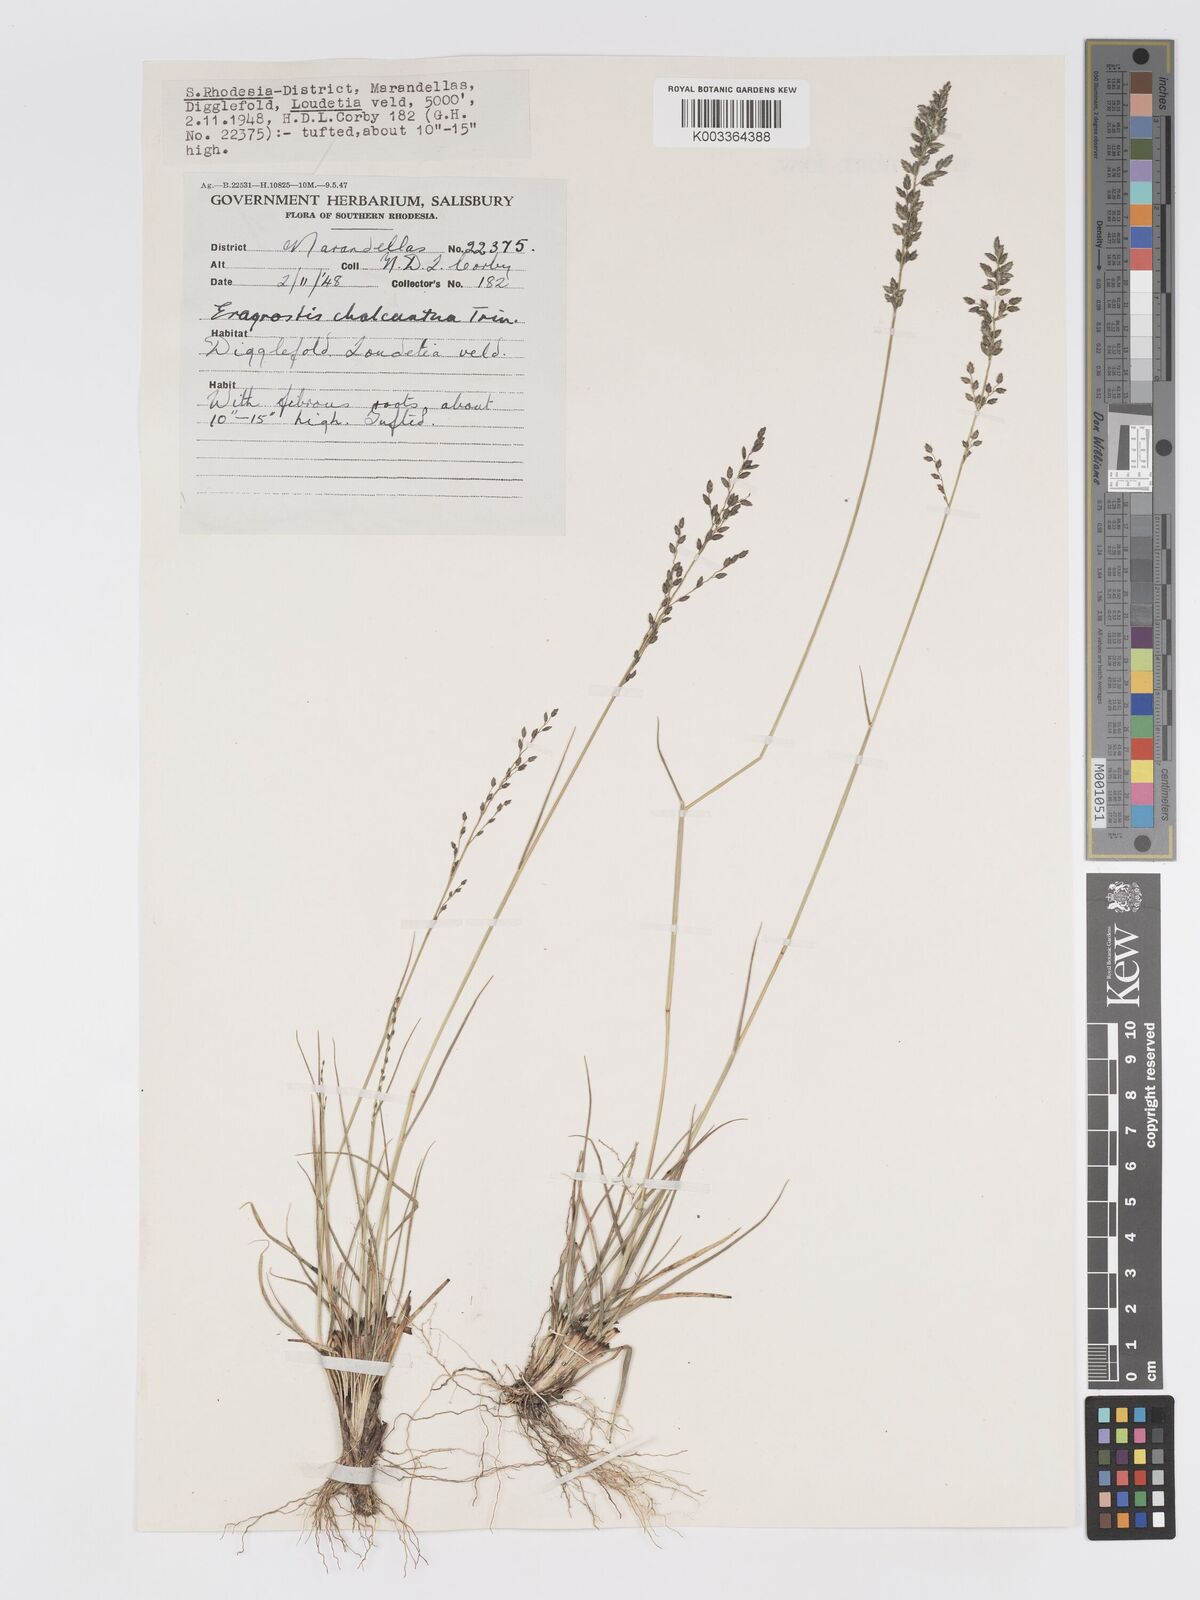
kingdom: Plantae
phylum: Tracheophyta
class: Liliopsida
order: Poales
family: Poaceae
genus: Eragrostis
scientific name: Eragrostis racemosa
